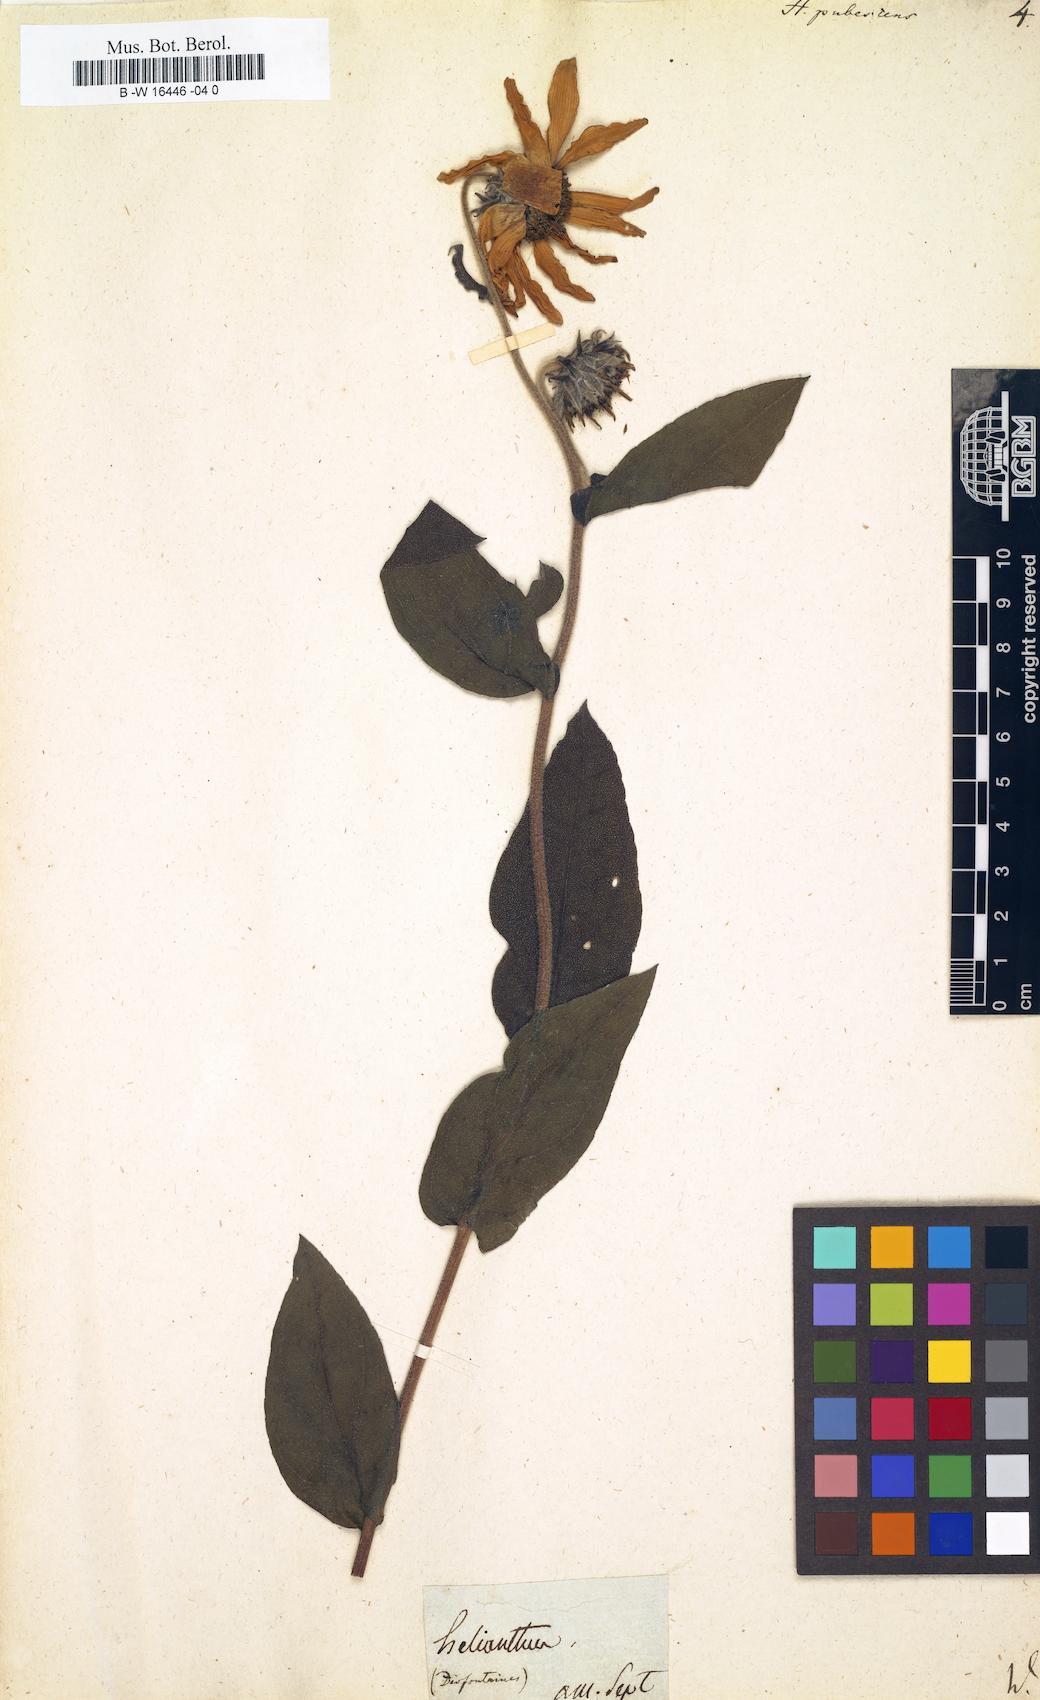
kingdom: Plantae
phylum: Tracheophyta
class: Magnoliopsida
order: Asterales
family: Asteraceae
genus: Helianthus
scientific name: Helianthus pubescens
